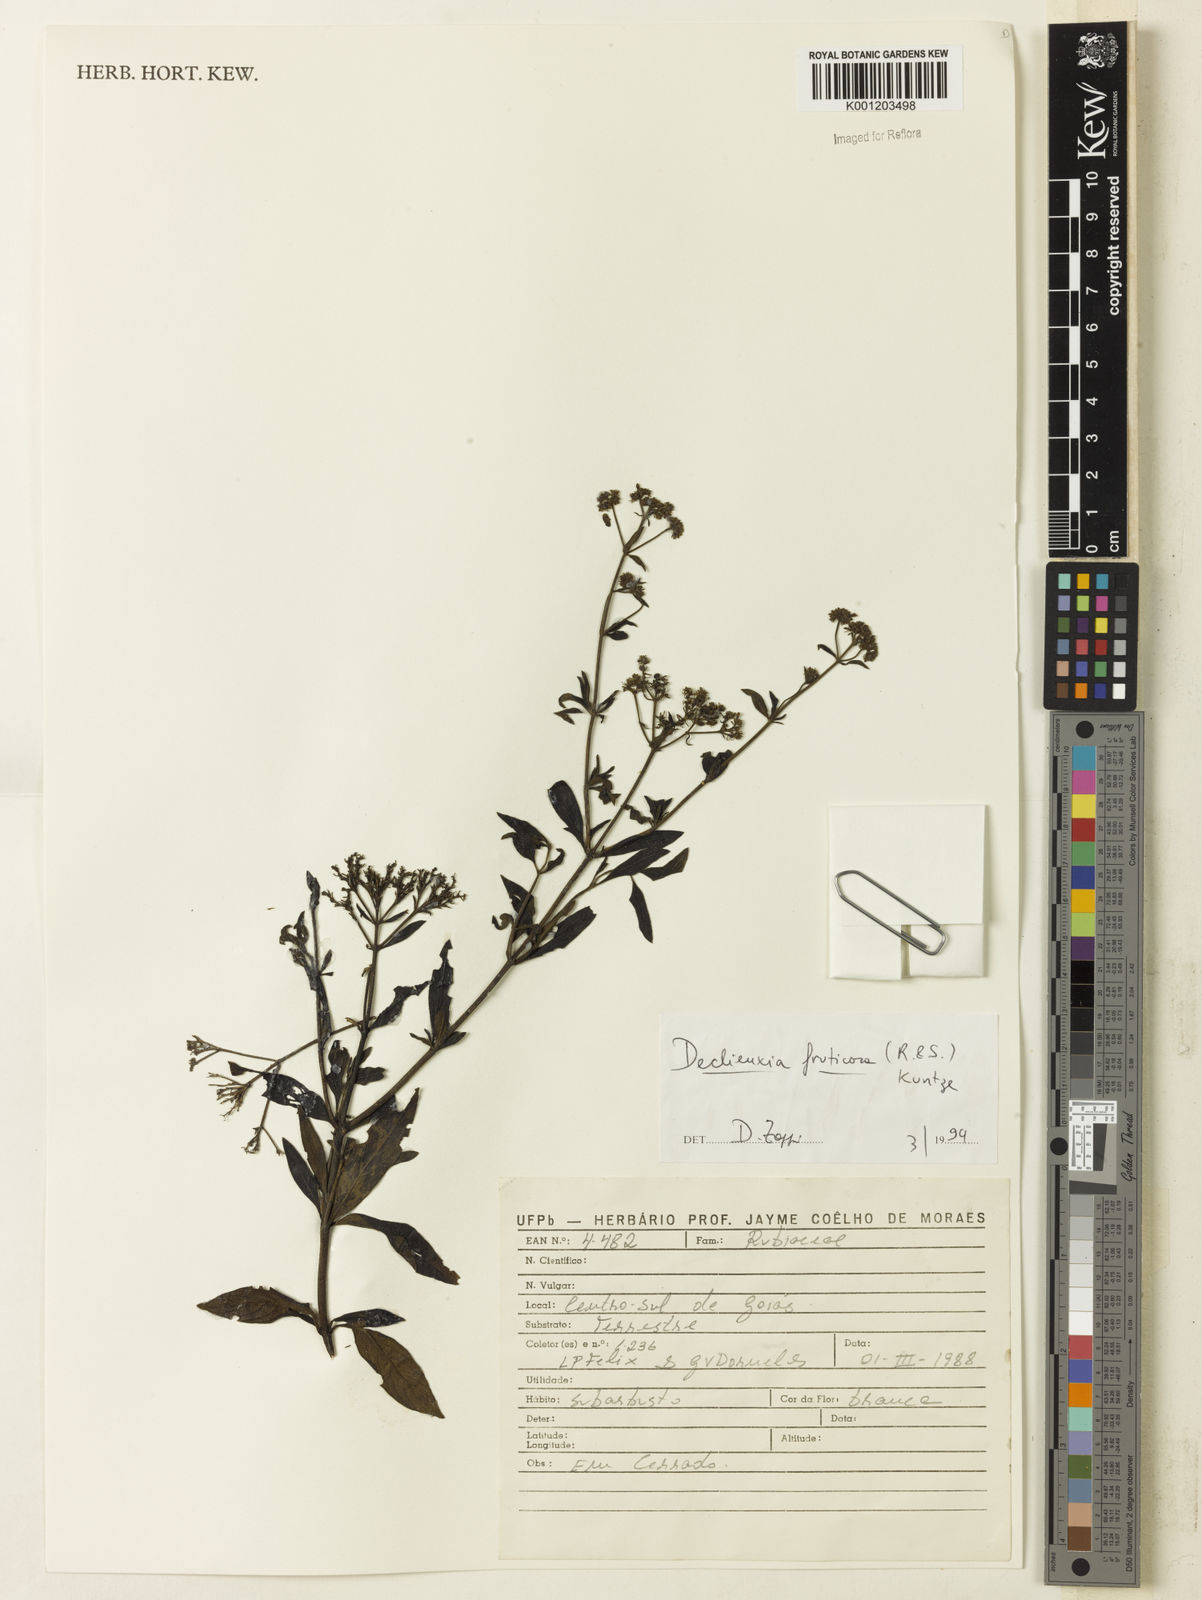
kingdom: Plantae
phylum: Tracheophyta
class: Magnoliopsida
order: Gentianales
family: Rubiaceae
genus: Declieuxia
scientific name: Declieuxia fruticosa
